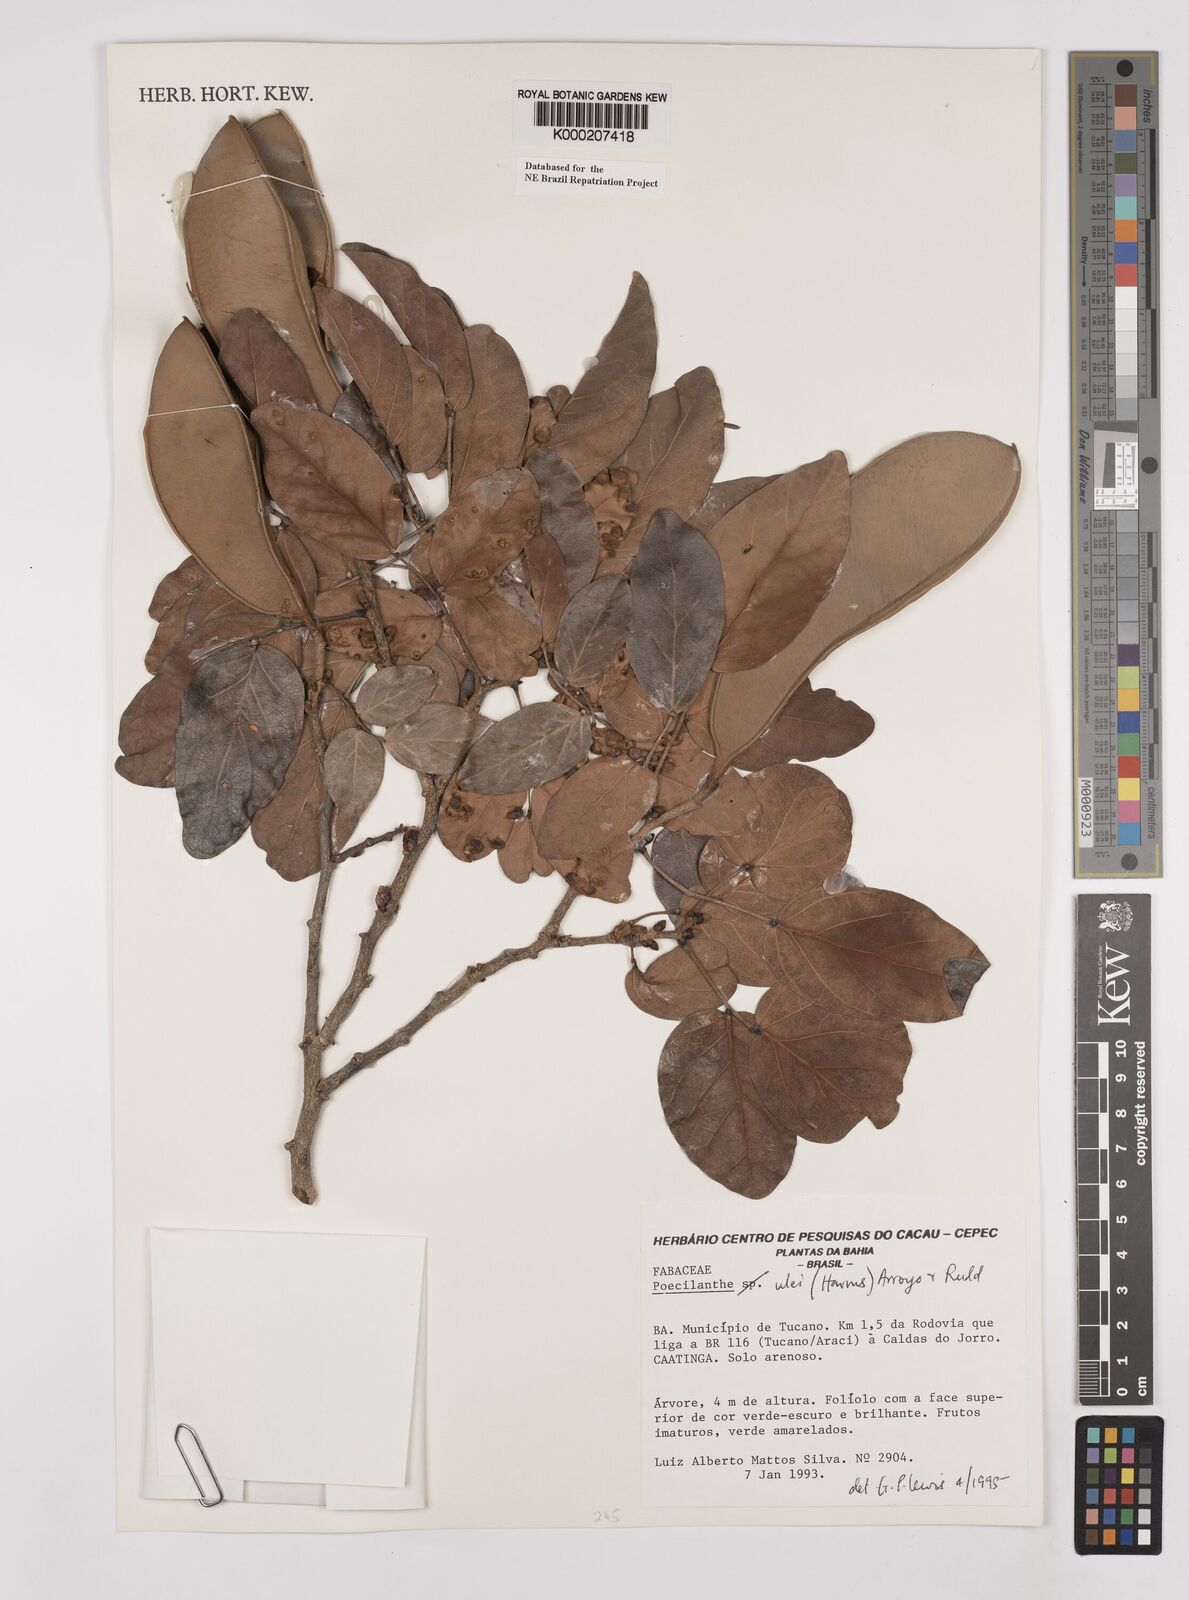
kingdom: Plantae
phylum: Tracheophyta
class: Magnoliopsida
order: Fabales
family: Fabaceae
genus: Poecilanthe
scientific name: Poecilanthe ulei
